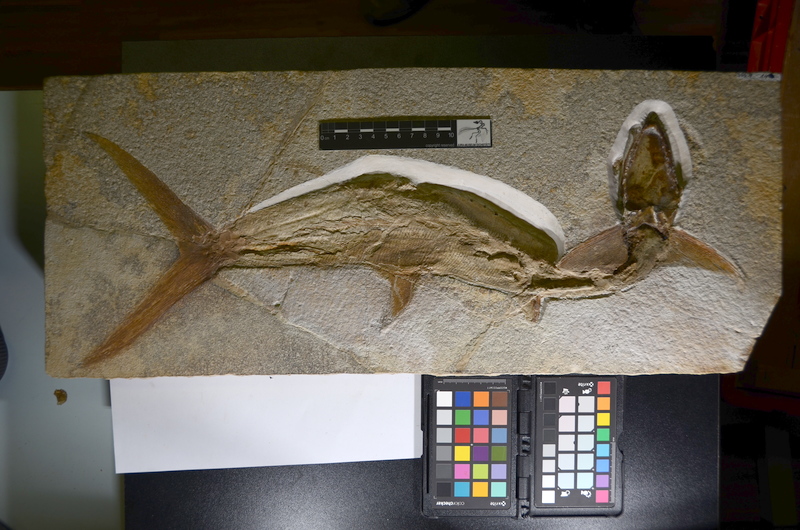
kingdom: Animalia
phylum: Chordata
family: Pachycormidae
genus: Sauropsis
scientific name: Sauropsis
